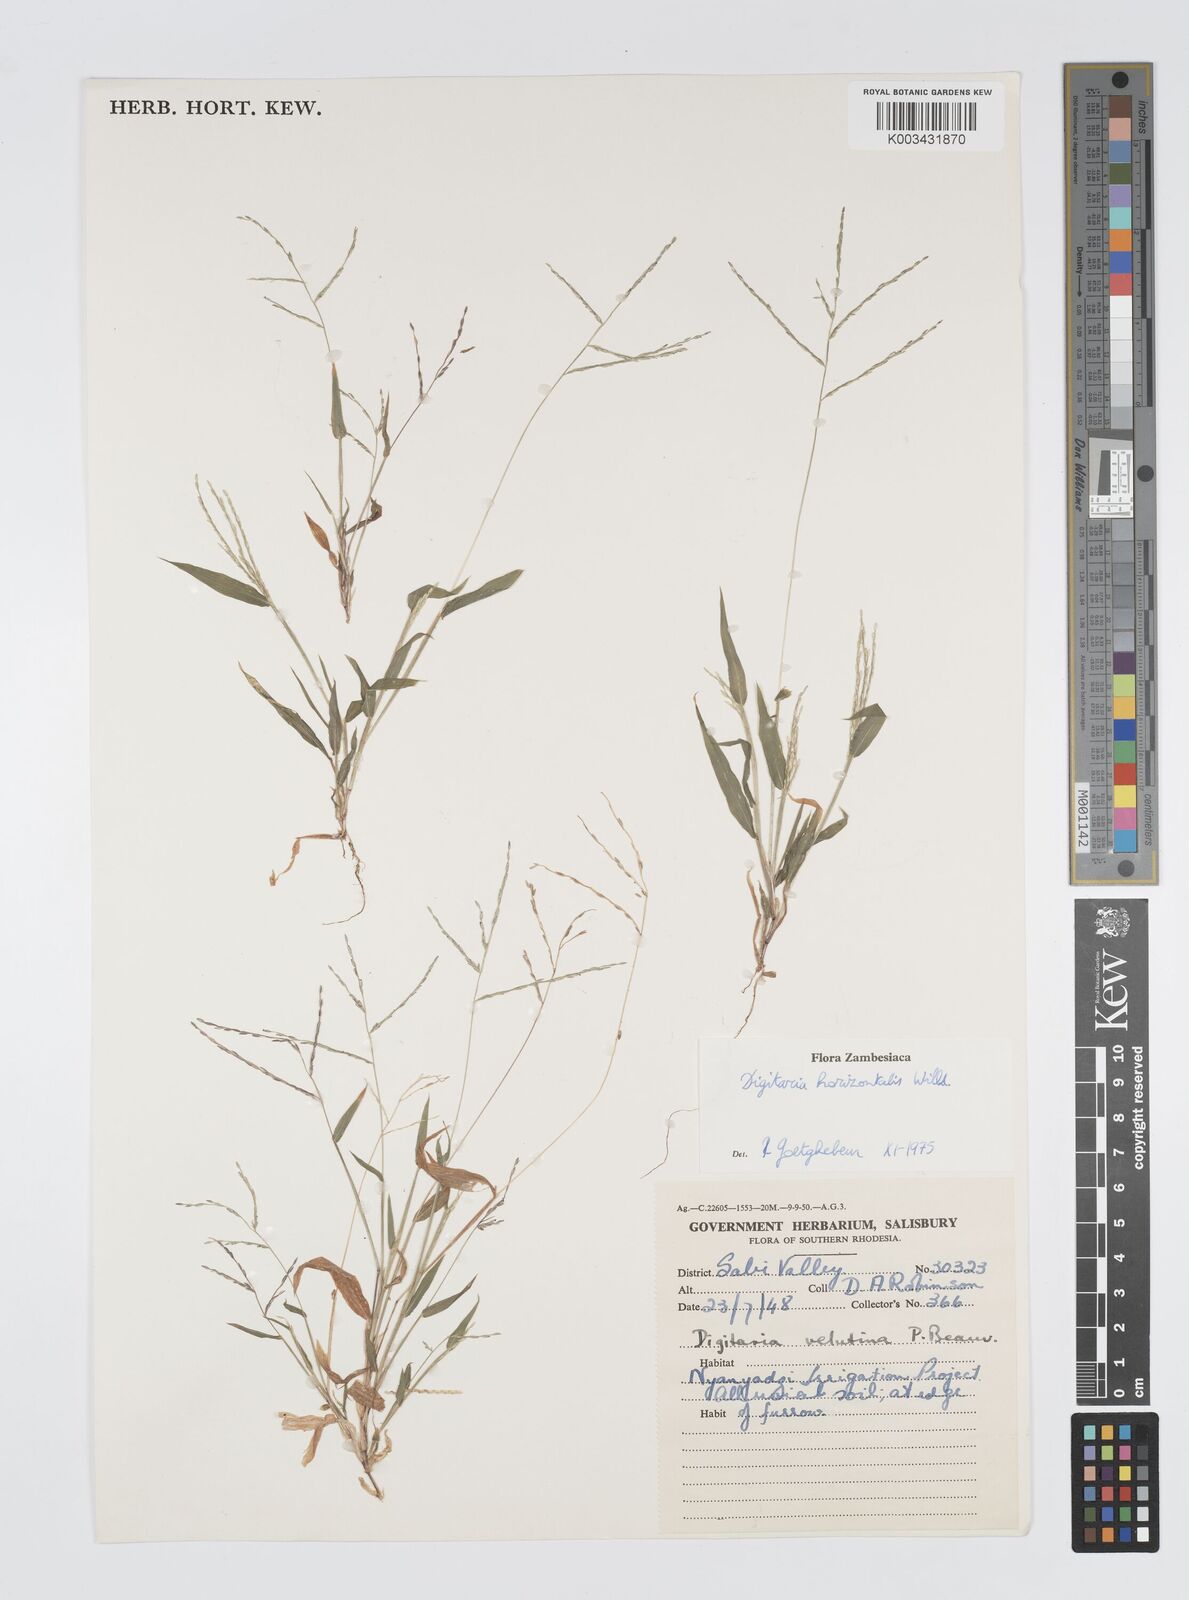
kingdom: Plantae
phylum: Tracheophyta
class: Liliopsida
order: Poales
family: Poaceae
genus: Digitaria
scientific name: Digitaria velutina
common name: Long-plume finger grass
